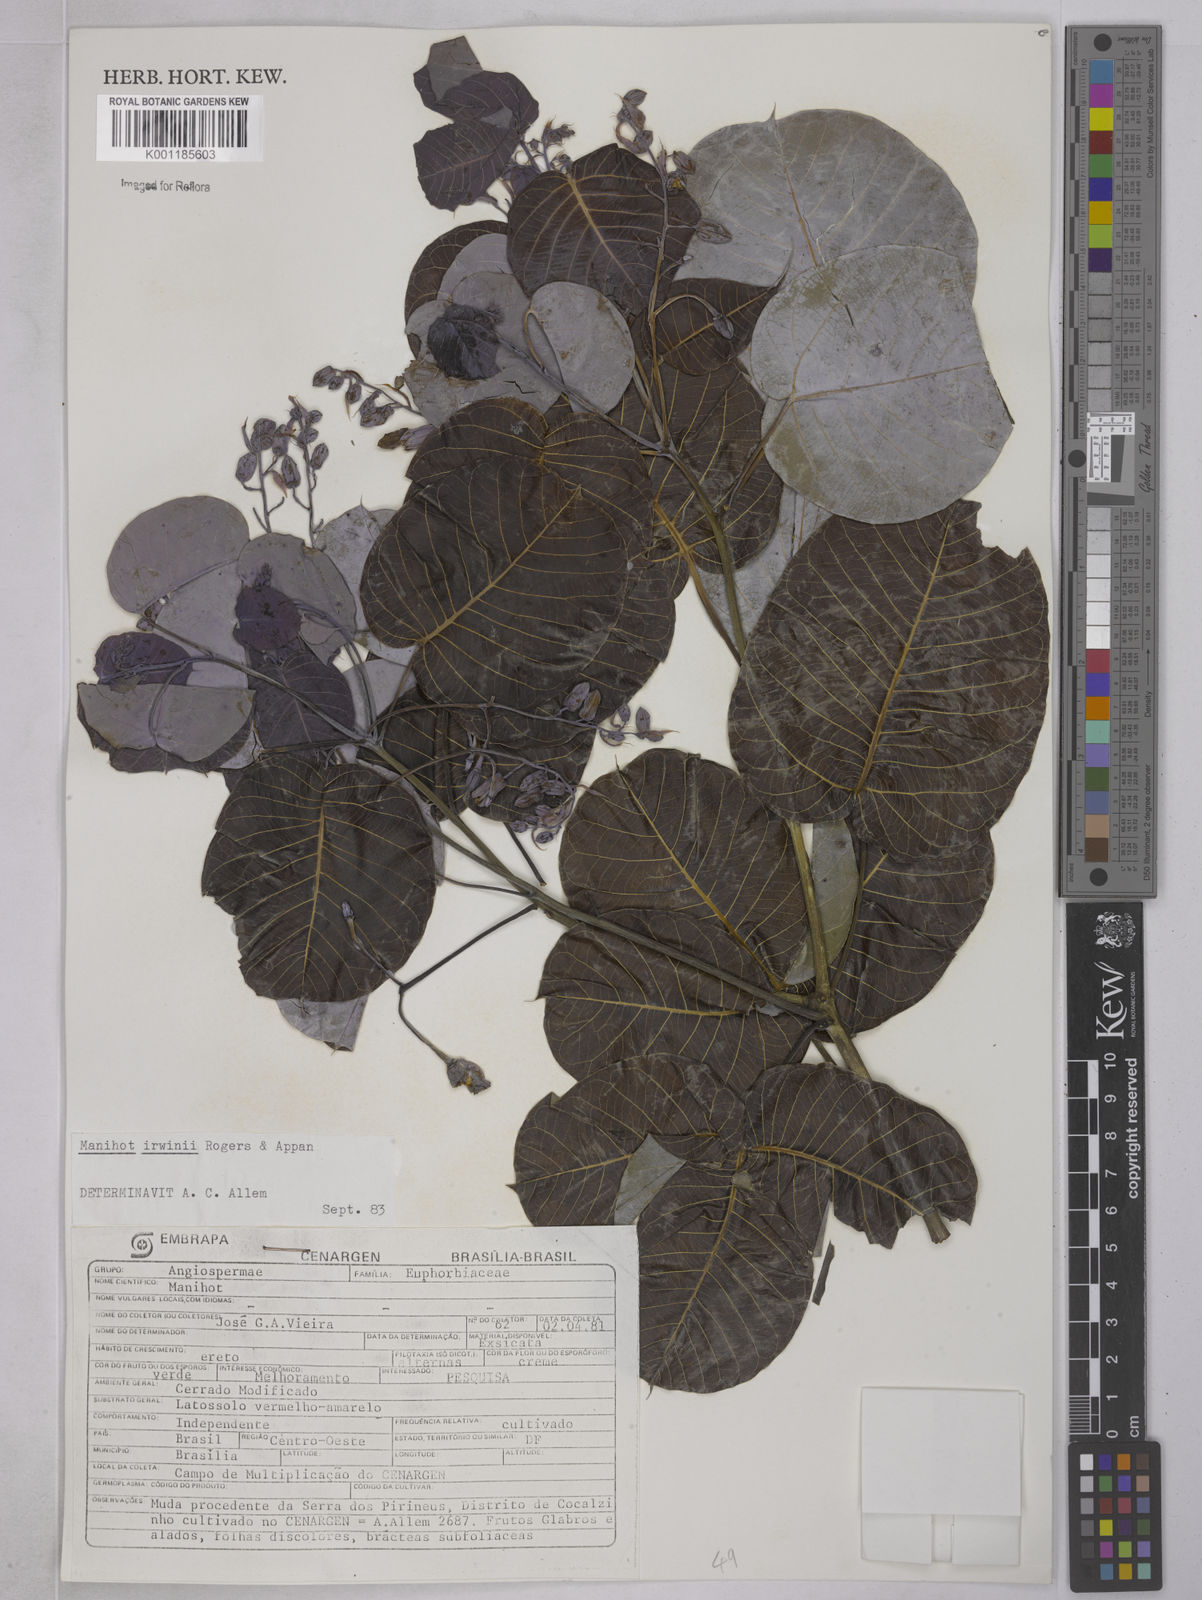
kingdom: Plantae
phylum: Tracheophyta
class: Magnoliopsida
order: Malpighiales
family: Euphorbiaceae
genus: Manihot
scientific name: Manihot irwinii
